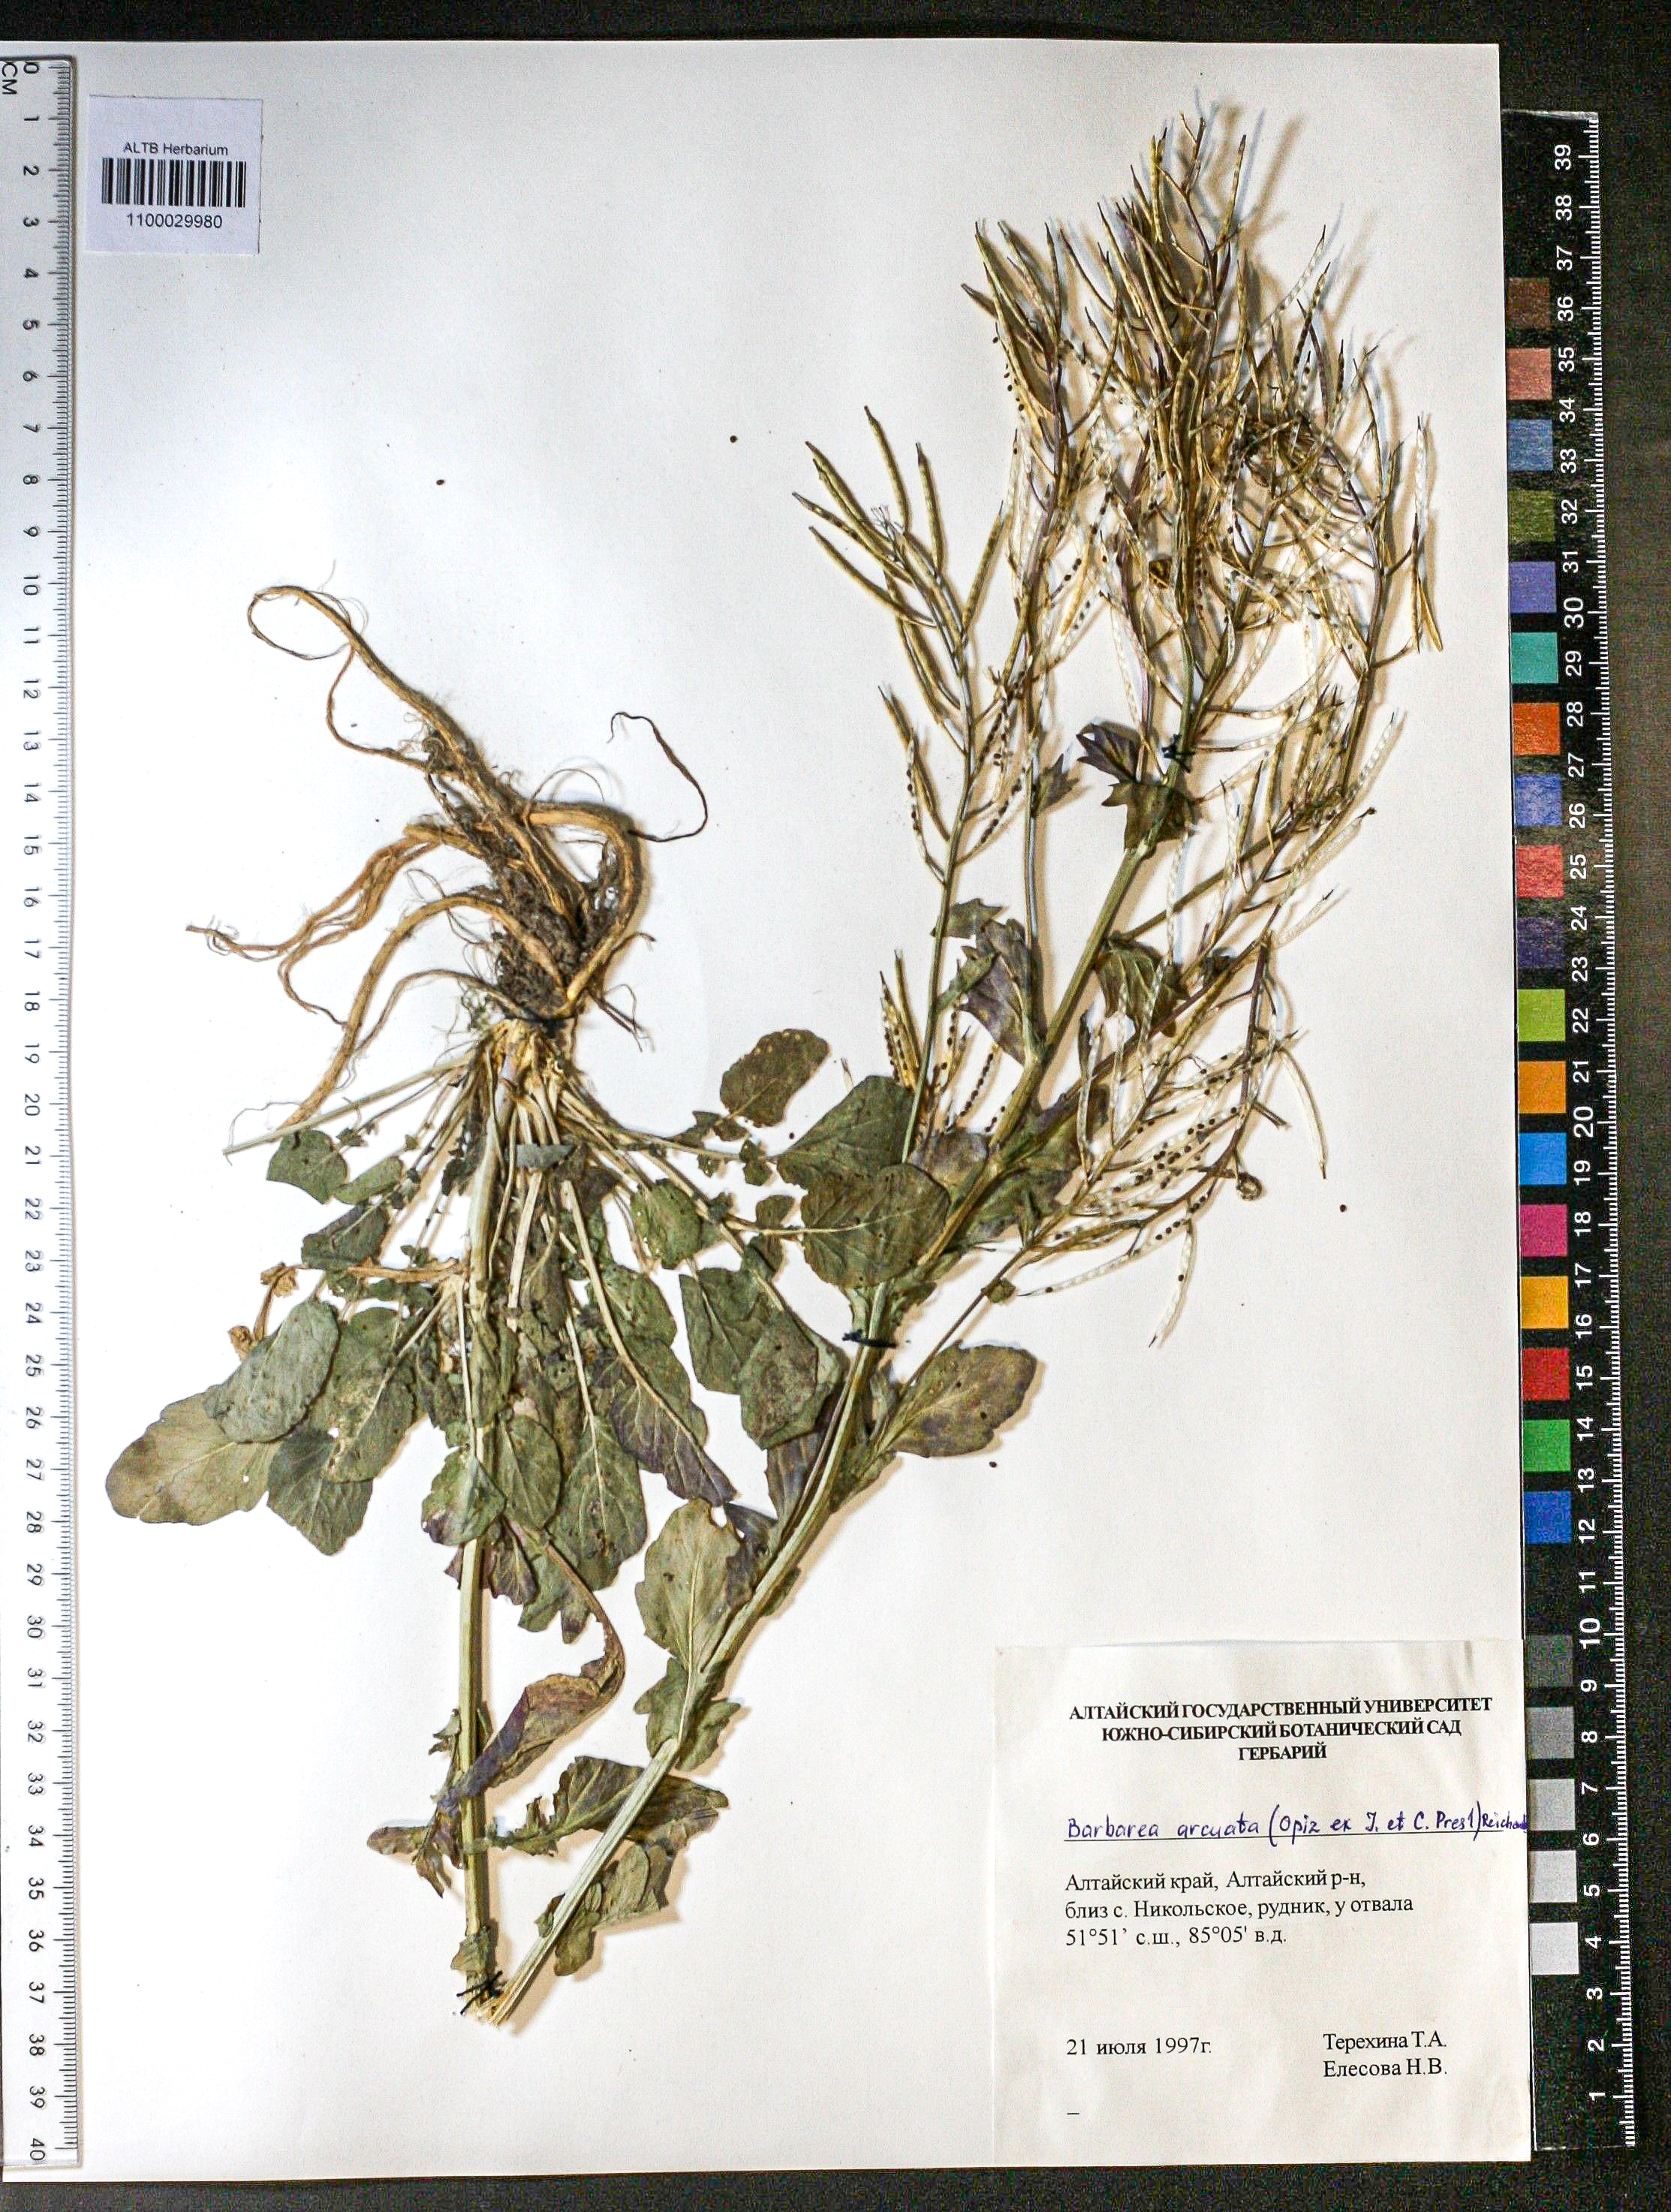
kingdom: Plantae
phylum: Tracheophyta
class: Magnoliopsida
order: Brassicales
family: Brassicaceae
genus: Barbarea
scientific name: Barbarea vulgaris
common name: Cressy-greens
